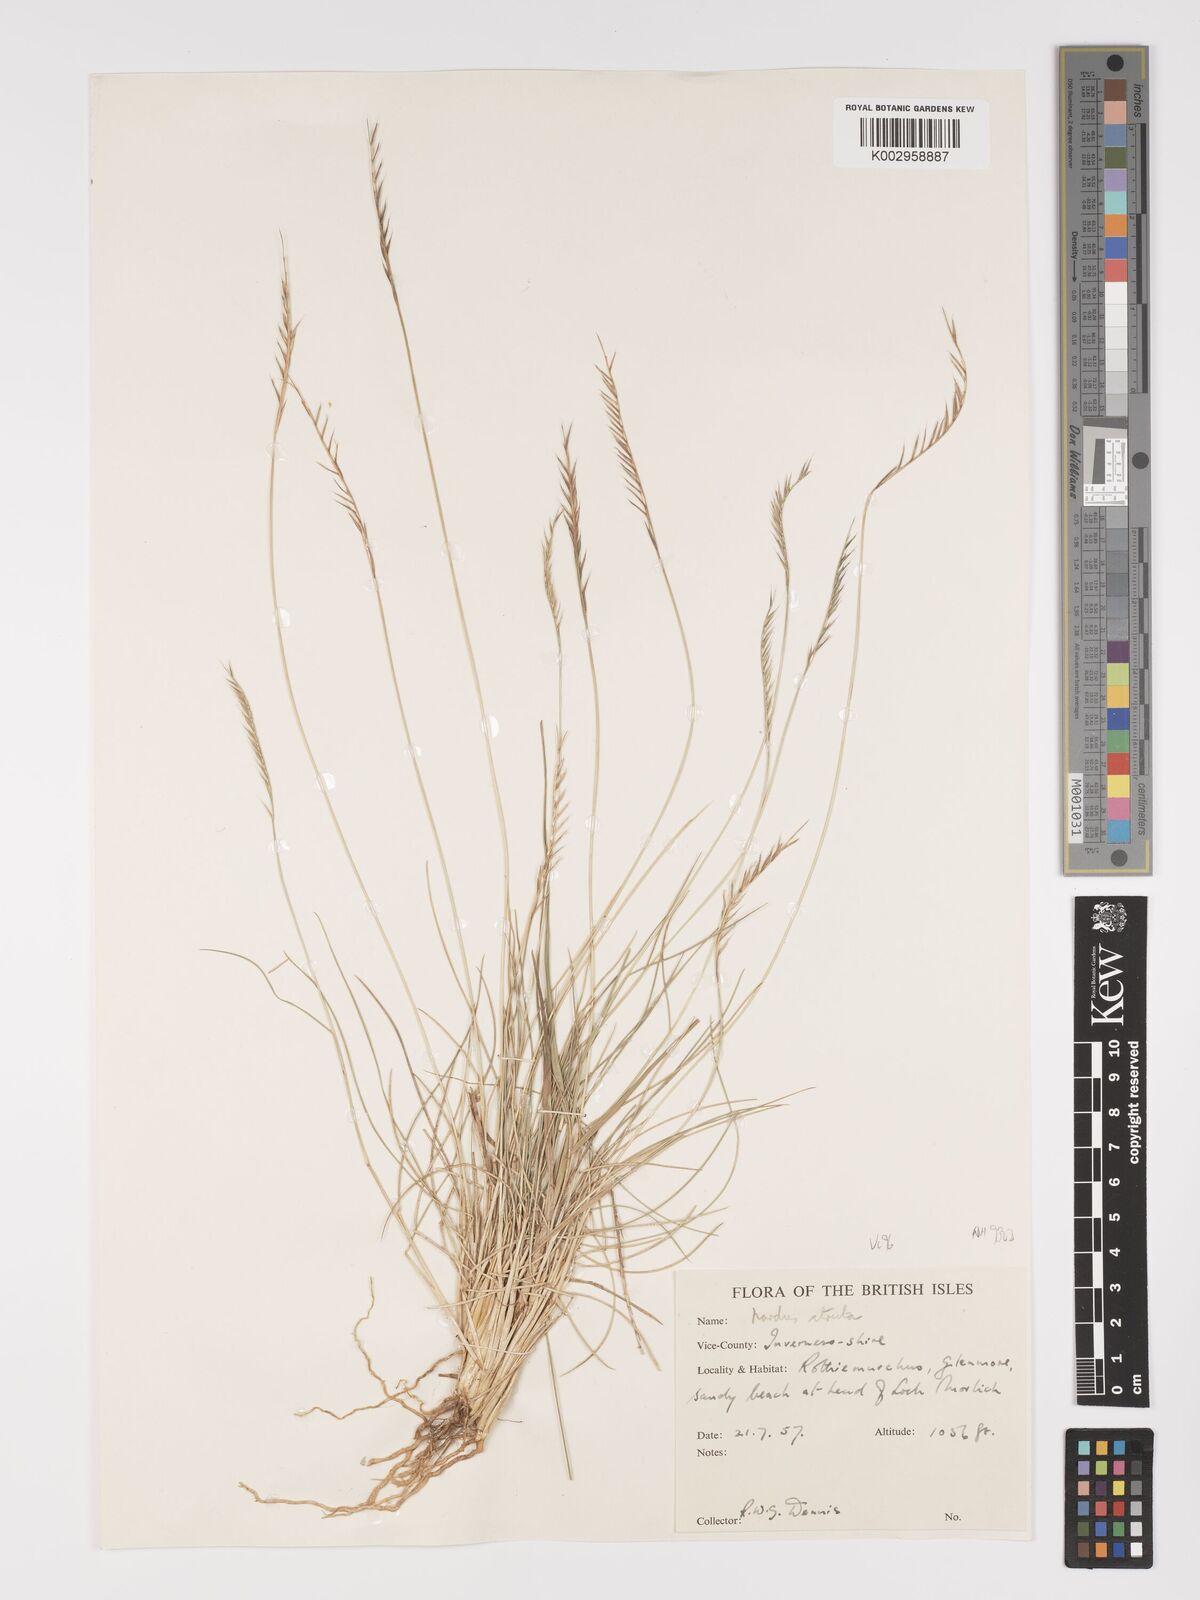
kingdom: Plantae
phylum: Tracheophyta
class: Liliopsida
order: Poales
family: Poaceae
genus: Nardus
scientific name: Nardus stricta
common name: Mat-grass
